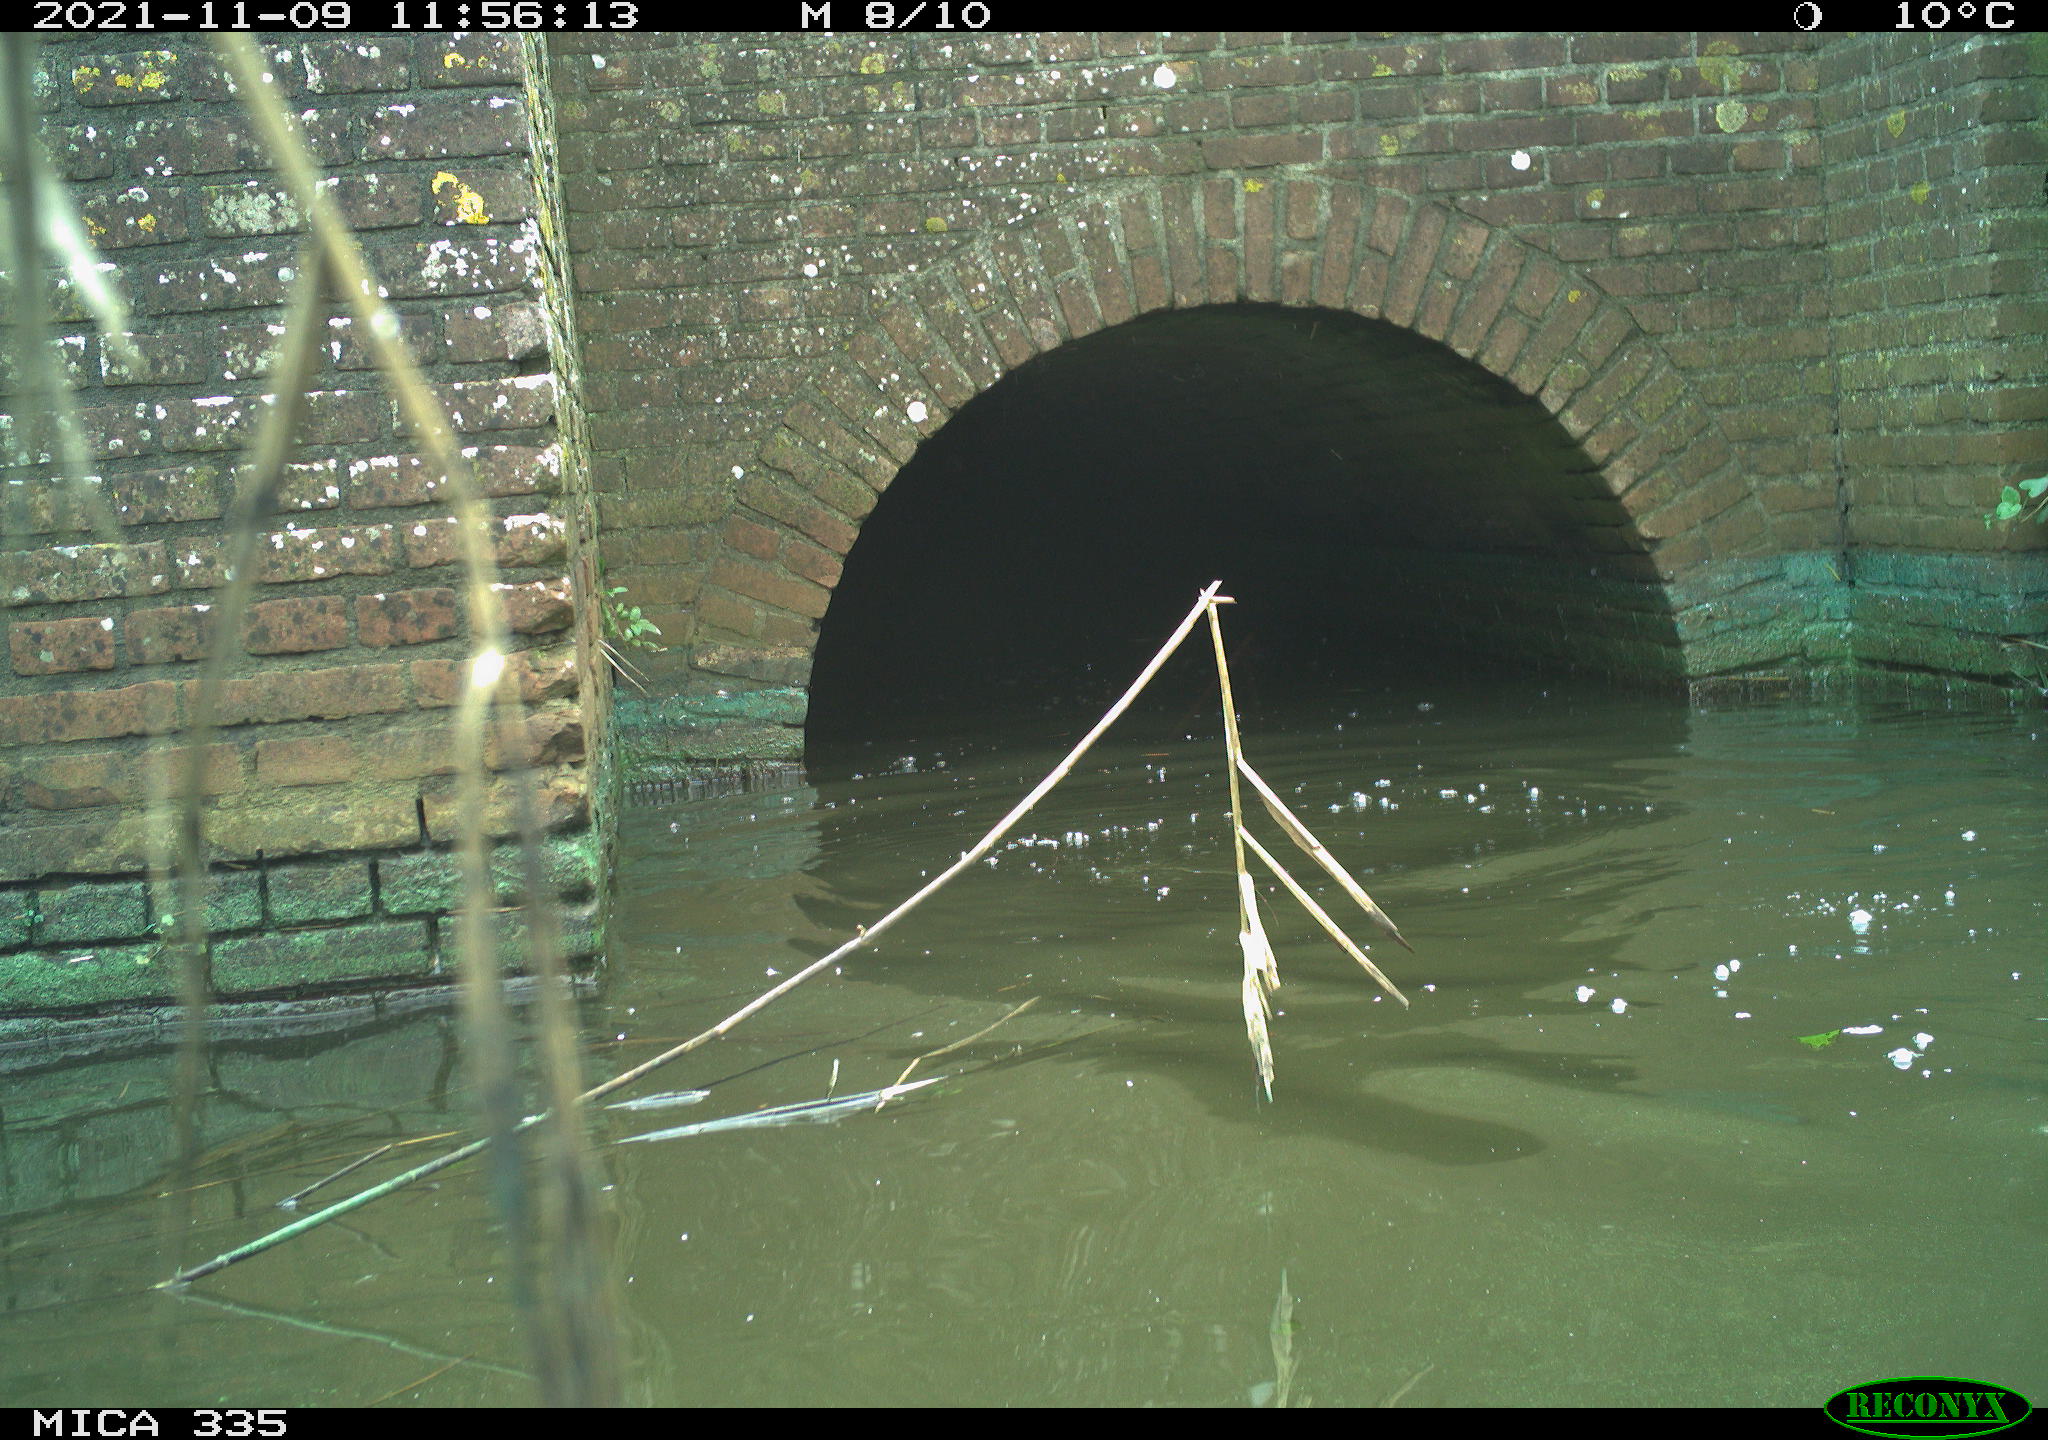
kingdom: Animalia
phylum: Chordata
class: Aves
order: Suliformes
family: Phalacrocoracidae
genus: Phalacrocorax
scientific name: Phalacrocorax carbo
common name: Great cormorant
